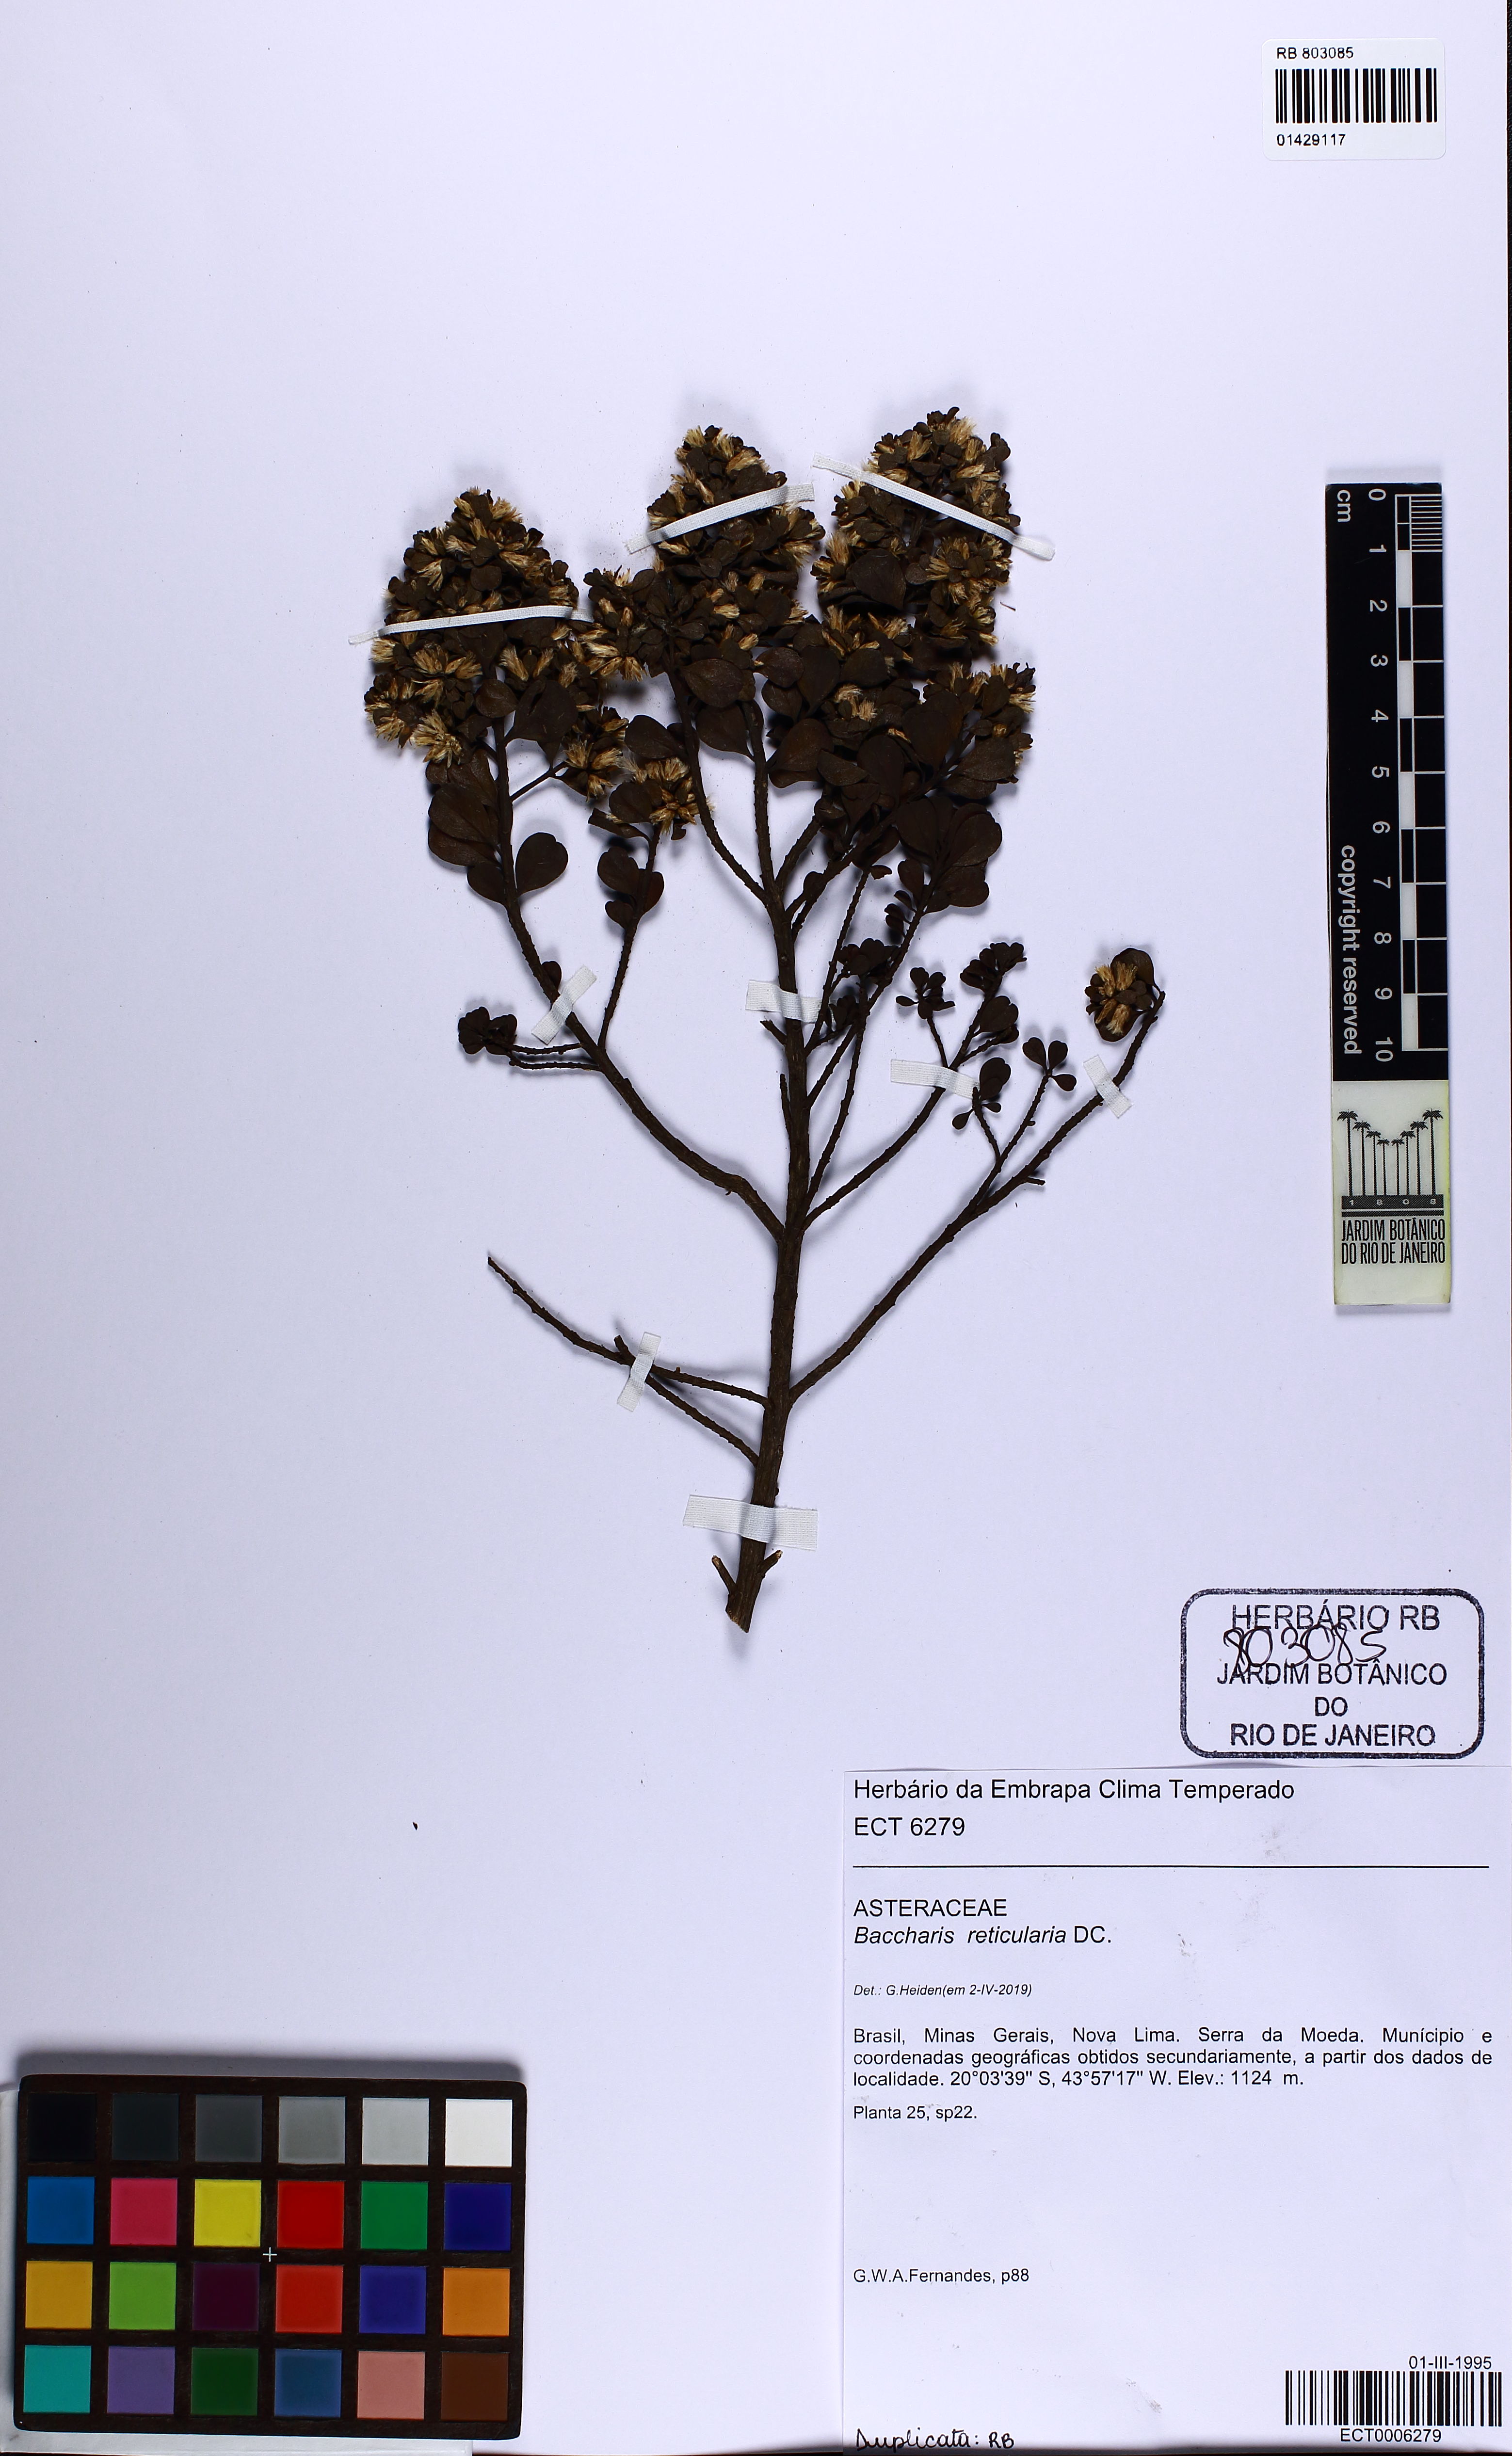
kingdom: Plantae
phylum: Tracheophyta
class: Magnoliopsida
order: Asterales
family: Asteraceae
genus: Baccharis
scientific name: Baccharis reticularia
